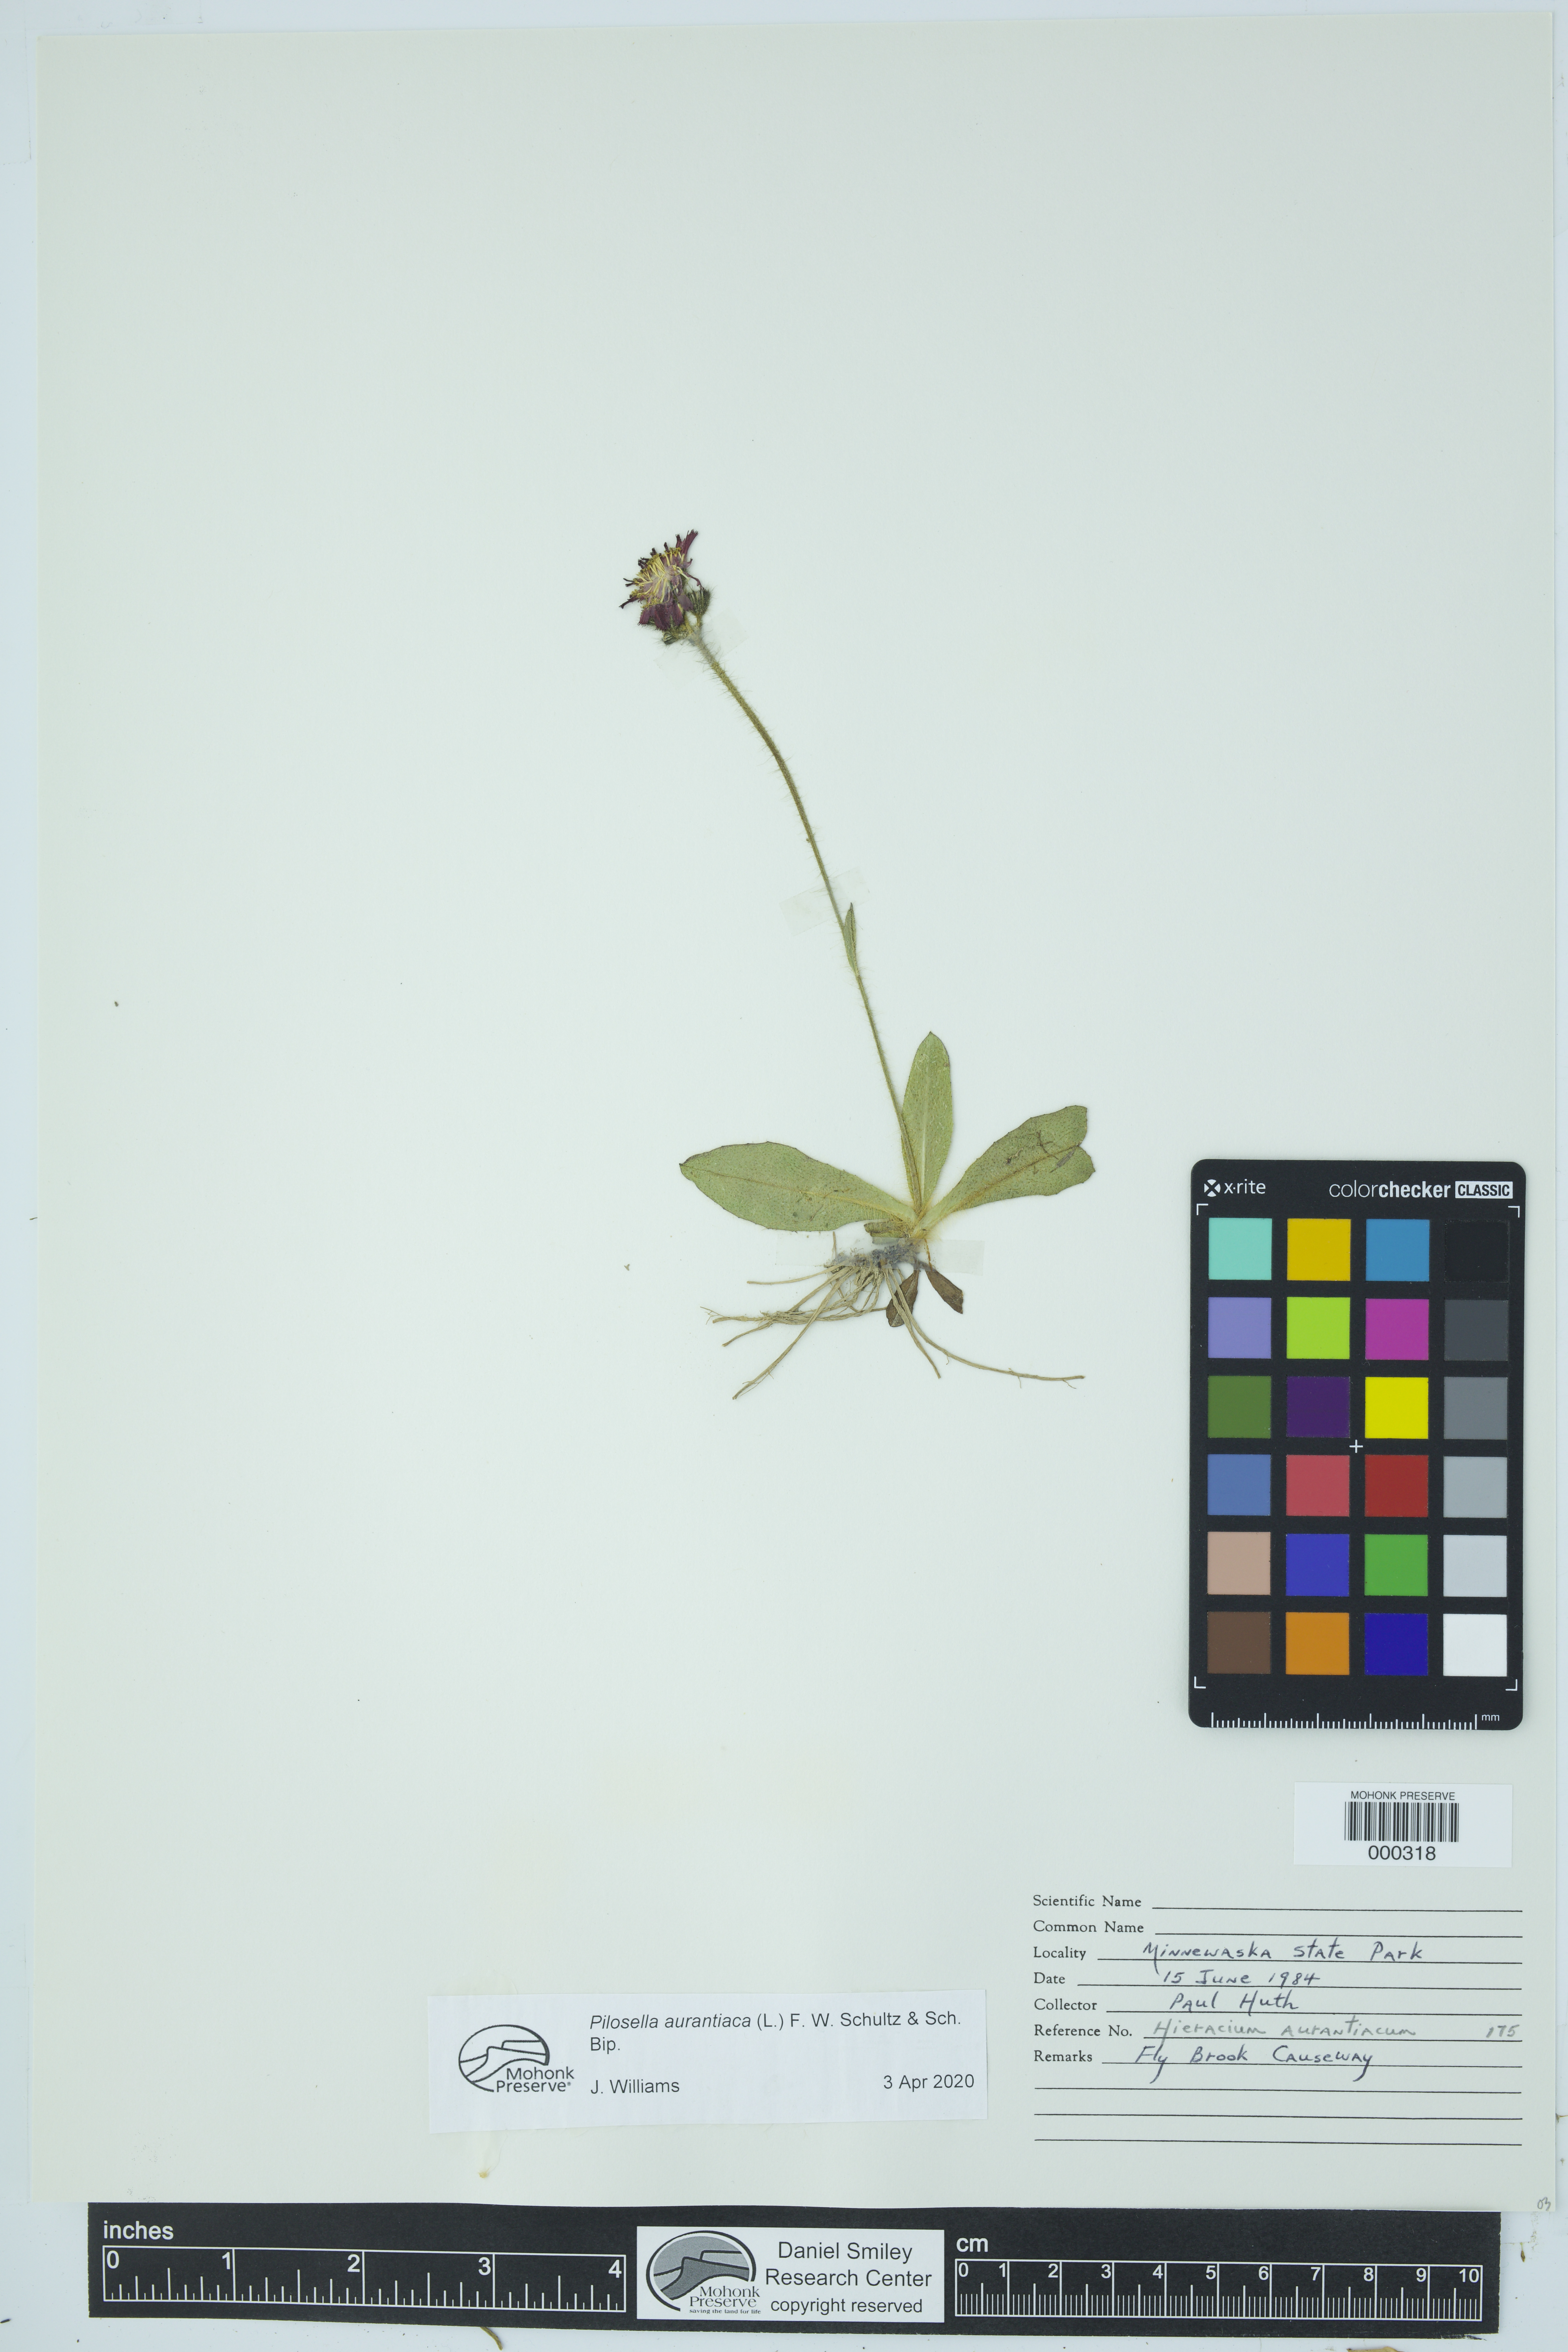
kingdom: Plantae
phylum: Tracheophyta
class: Magnoliopsida
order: Asterales
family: Asteraceae
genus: Pilosella
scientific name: Pilosella aurantiaca
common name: Fox-and-cubs
